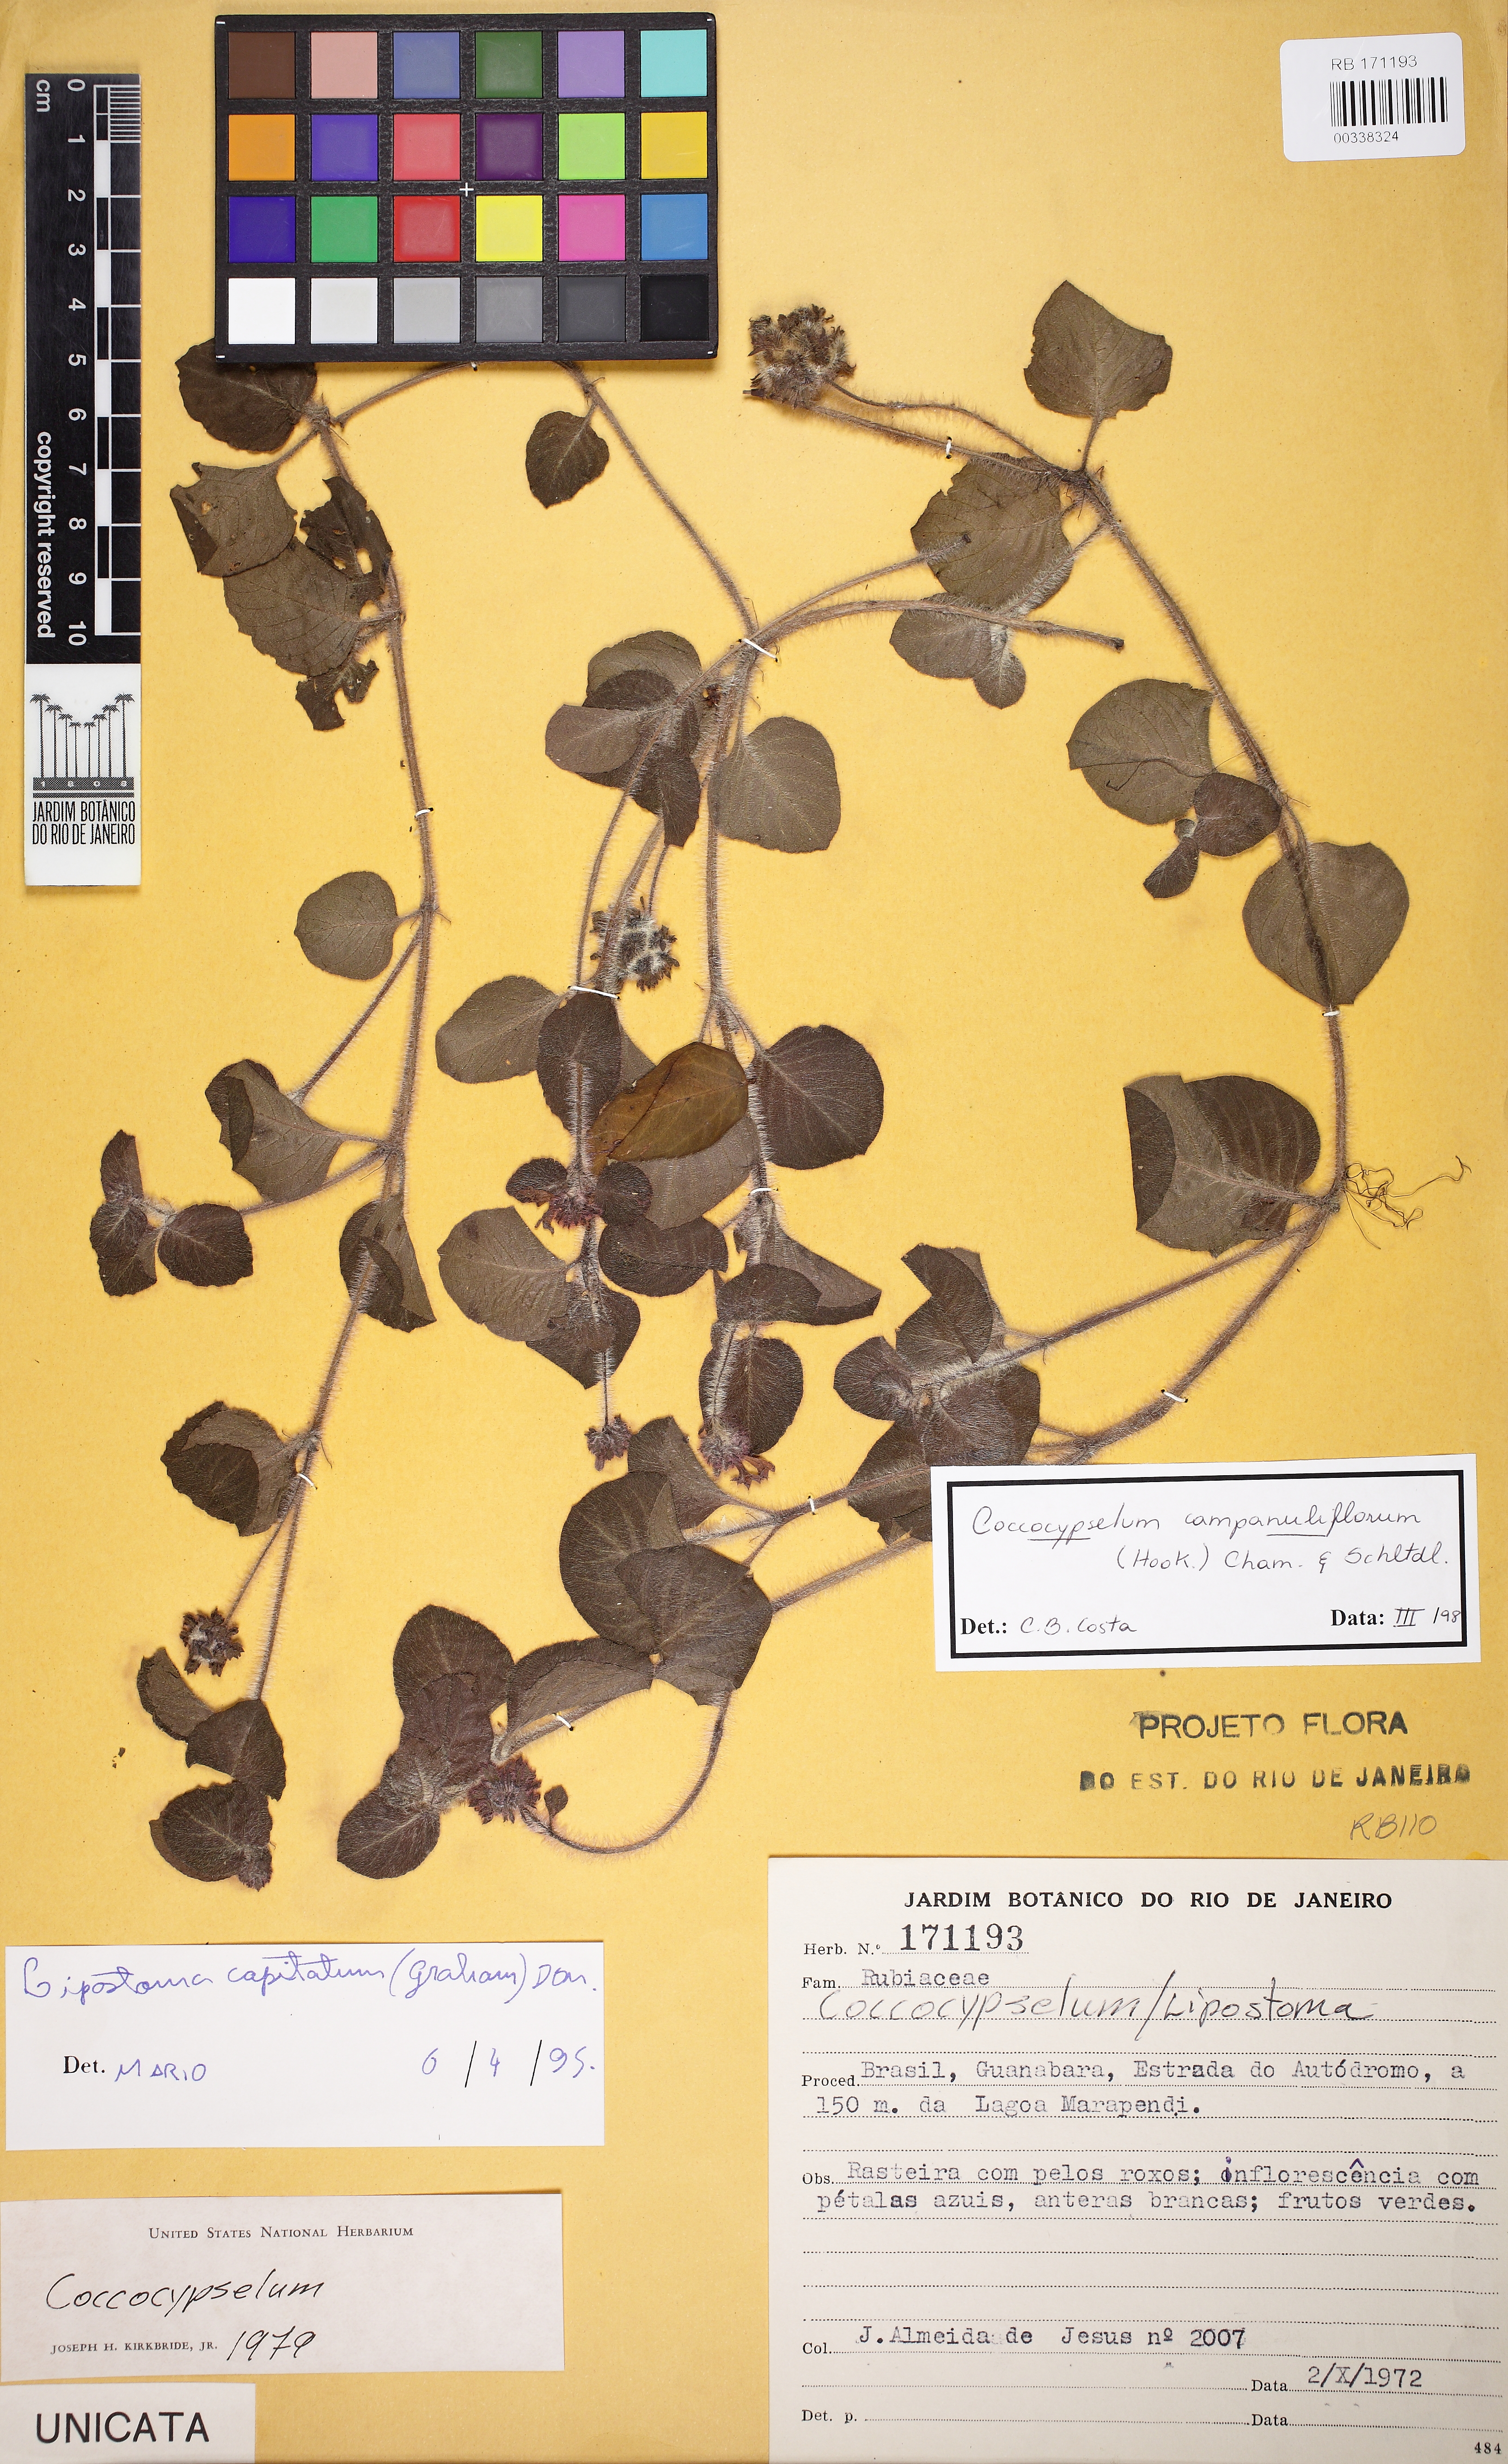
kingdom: Plantae
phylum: Tracheophyta
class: Magnoliopsida
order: Gentianales
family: Rubiaceae
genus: Coccocypselum
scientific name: Coccocypselum capitatum
